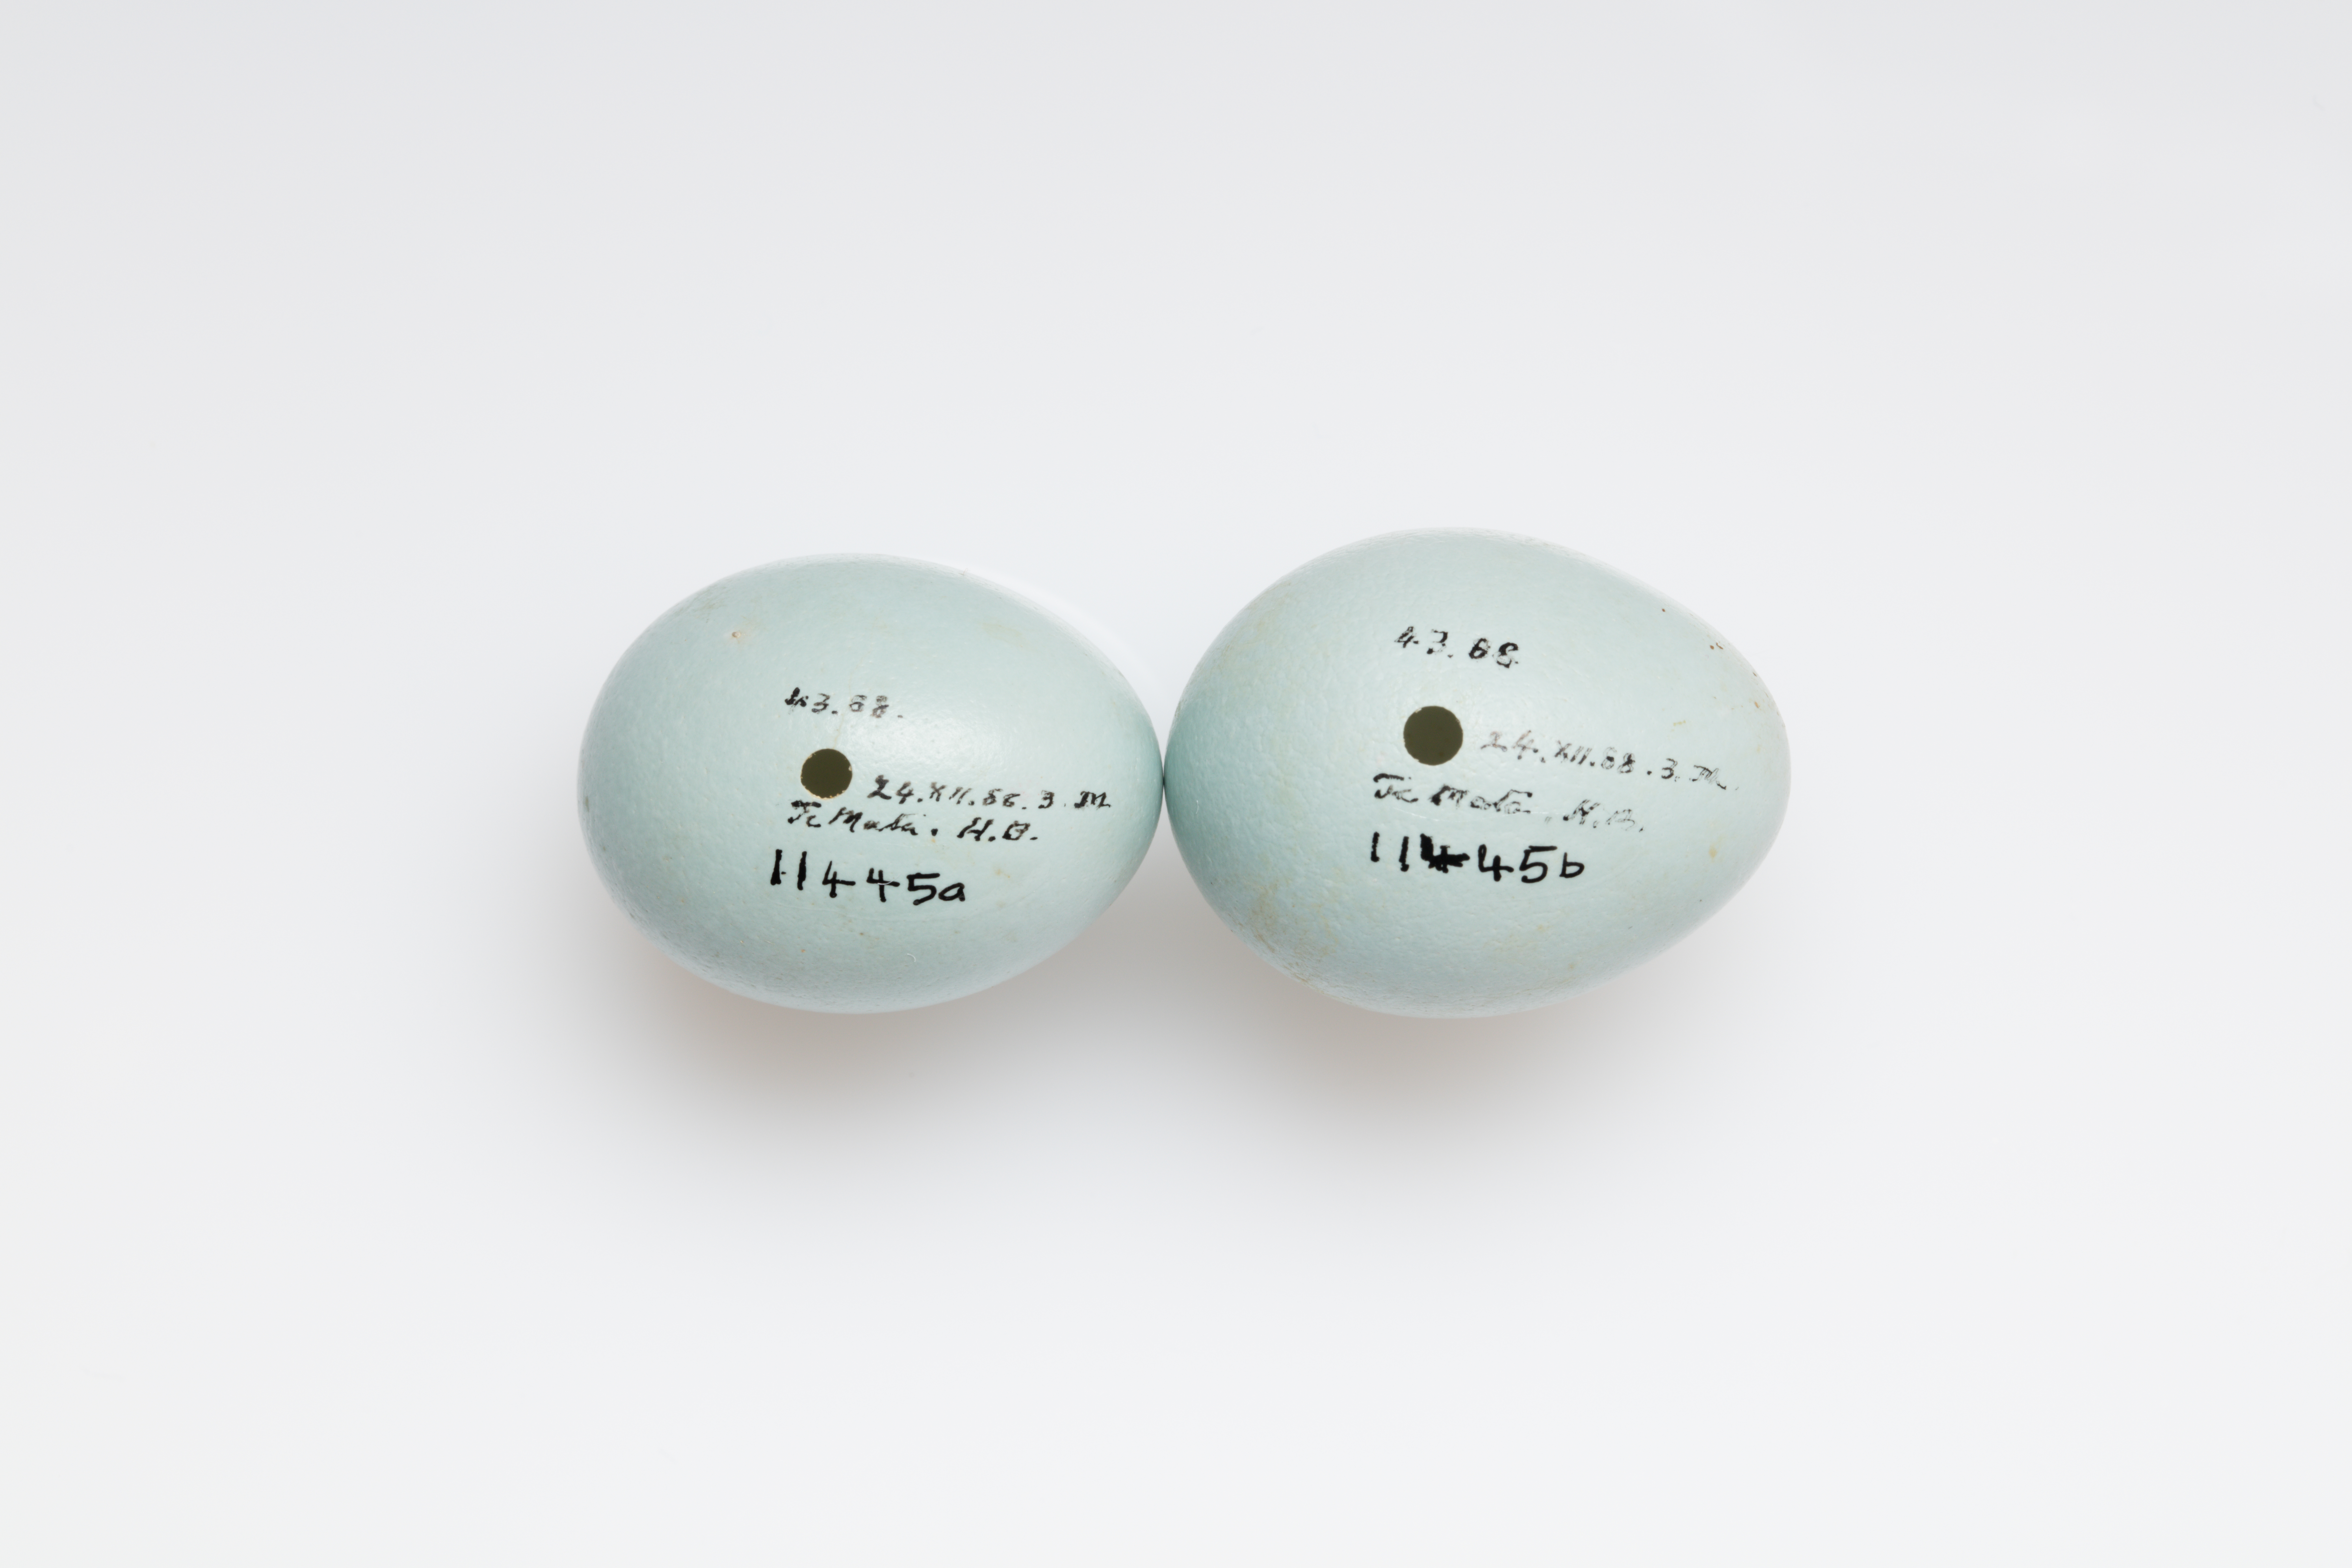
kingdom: Animalia
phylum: Chordata
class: Aves
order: Passeriformes
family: Sturnidae
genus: Sturnus
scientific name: Sturnus vulgaris
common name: Common starling
